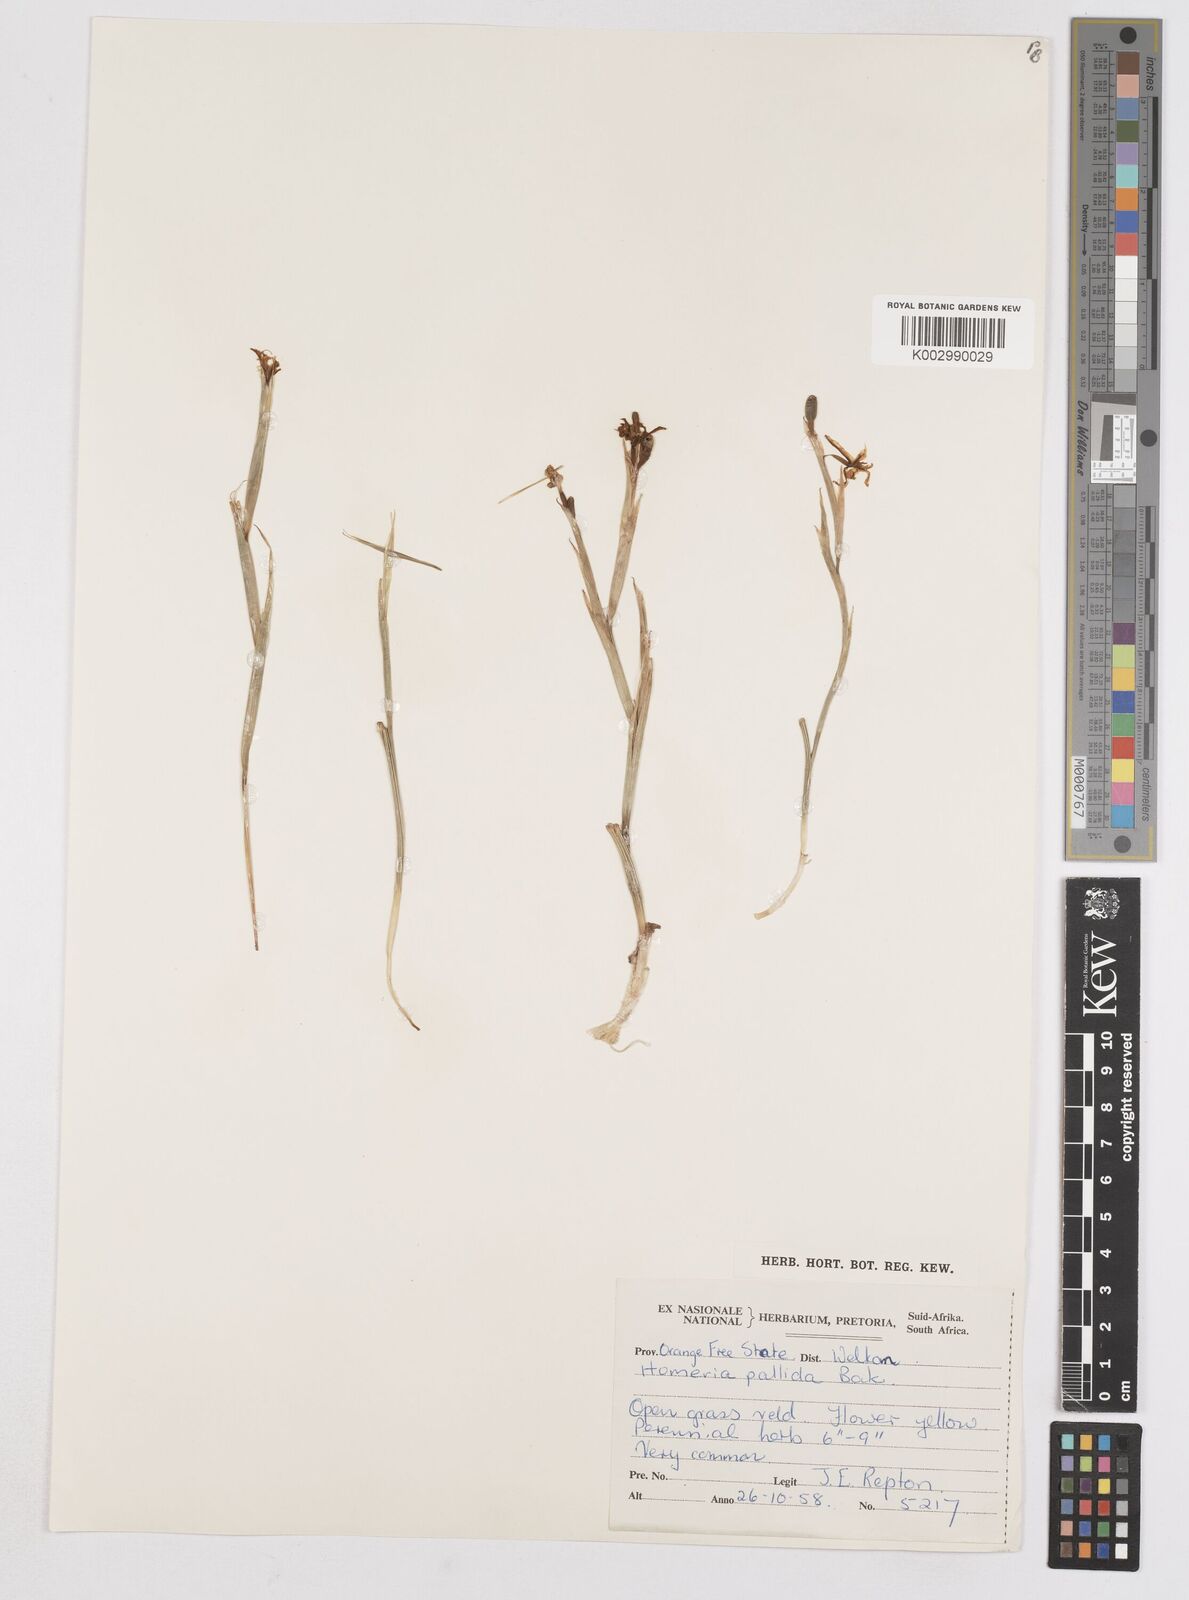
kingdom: Plantae
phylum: Tracheophyta
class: Liliopsida
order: Asparagales
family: Iridaceae
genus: Moraea
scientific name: Moraea pallida
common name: Yellow tulp
